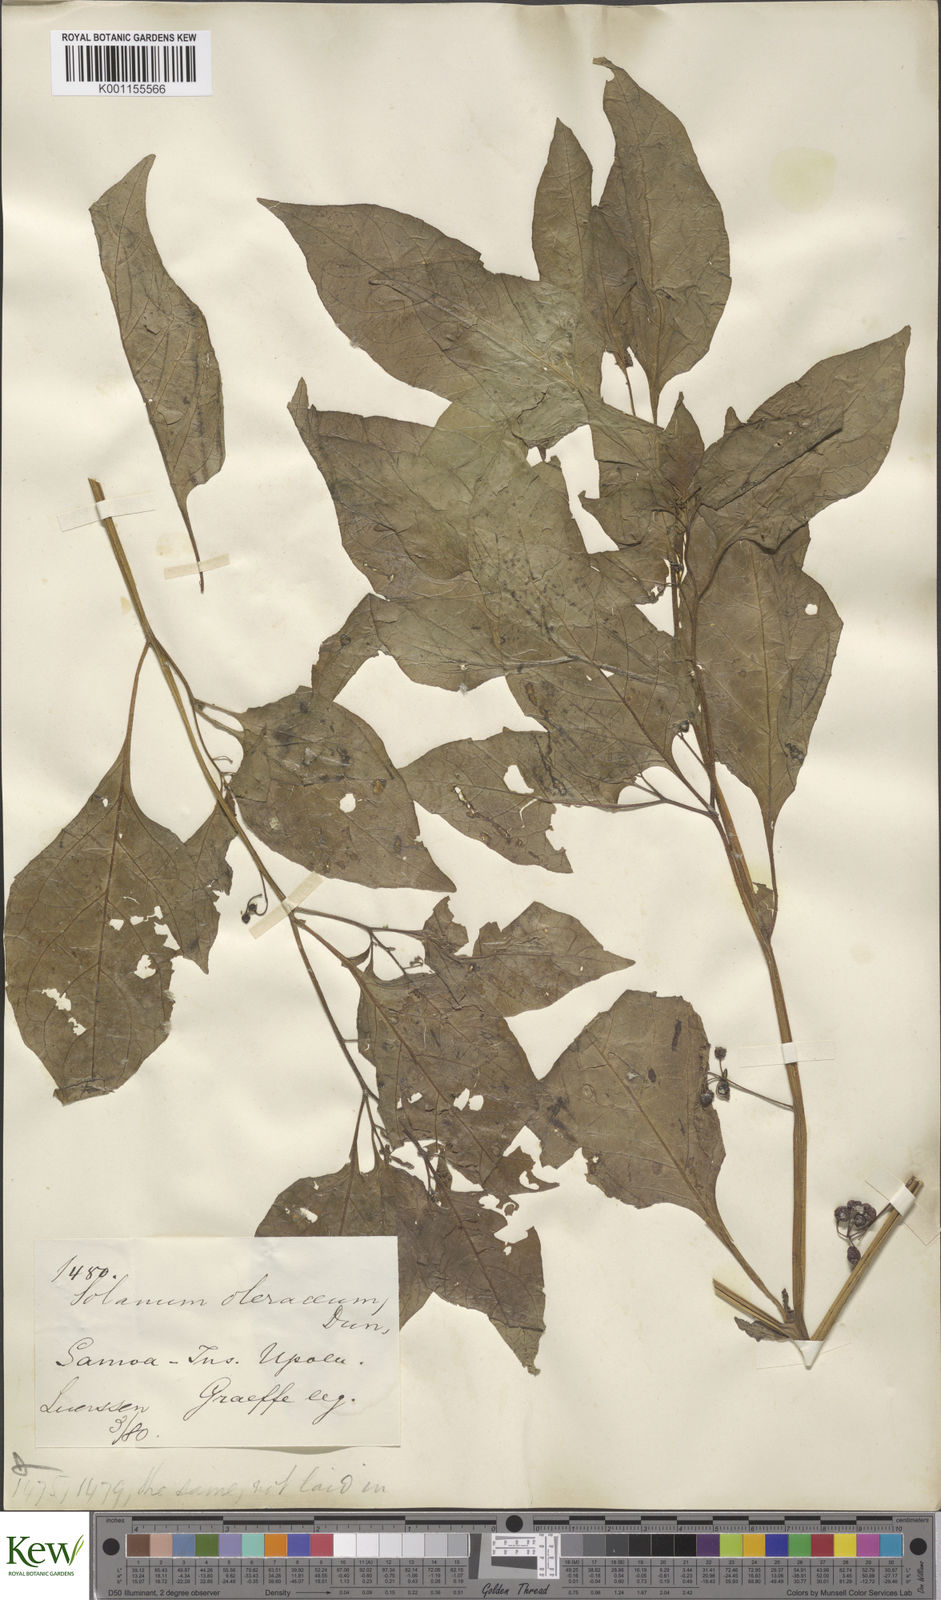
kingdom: Plantae
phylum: Tracheophyta
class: Magnoliopsida
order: Solanales
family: Solanaceae
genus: Solanum
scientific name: Solanum americanum
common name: American black nightshade
